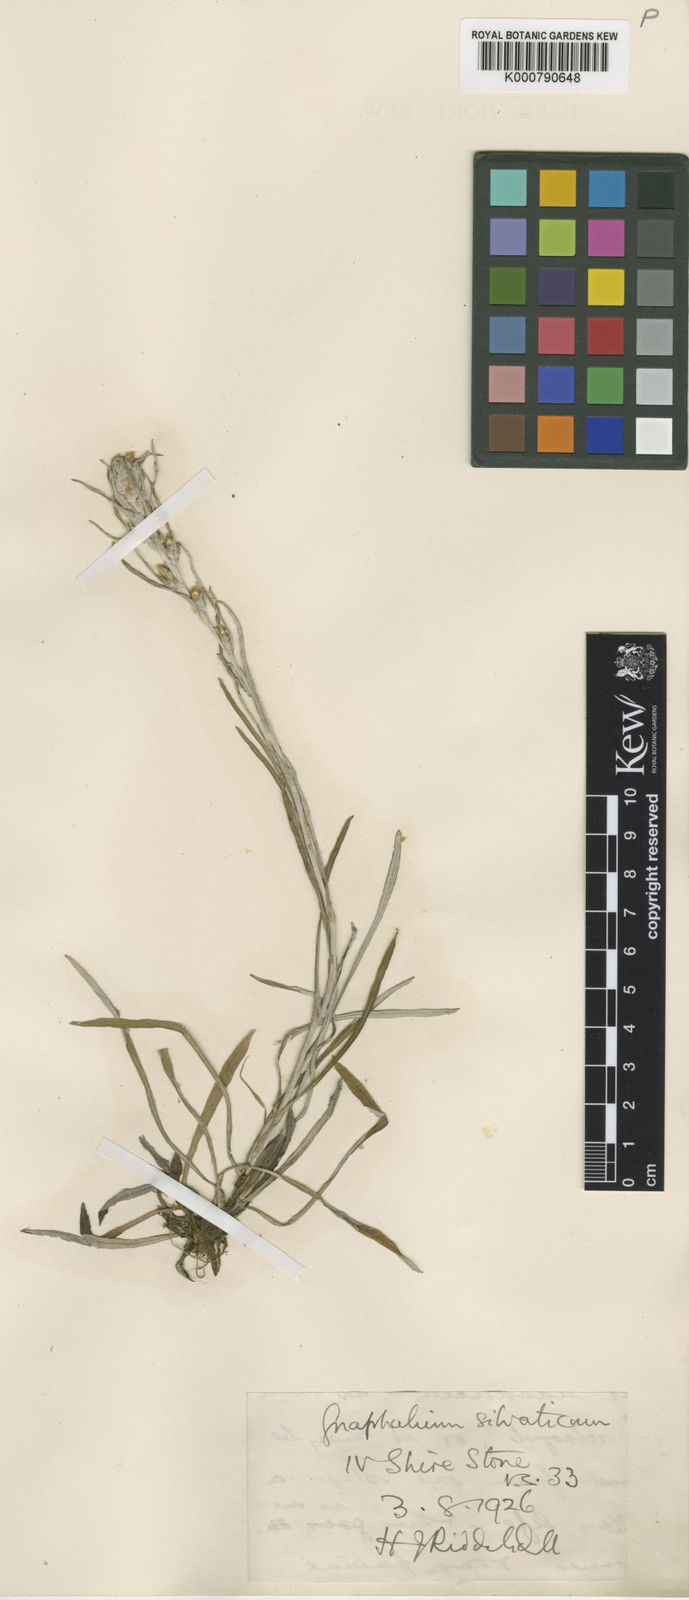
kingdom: Plantae
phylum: Tracheophyta
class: Magnoliopsida
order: Asterales
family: Asteraceae
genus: Omalotheca
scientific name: Omalotheca sylvatica
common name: Heath cudweed
